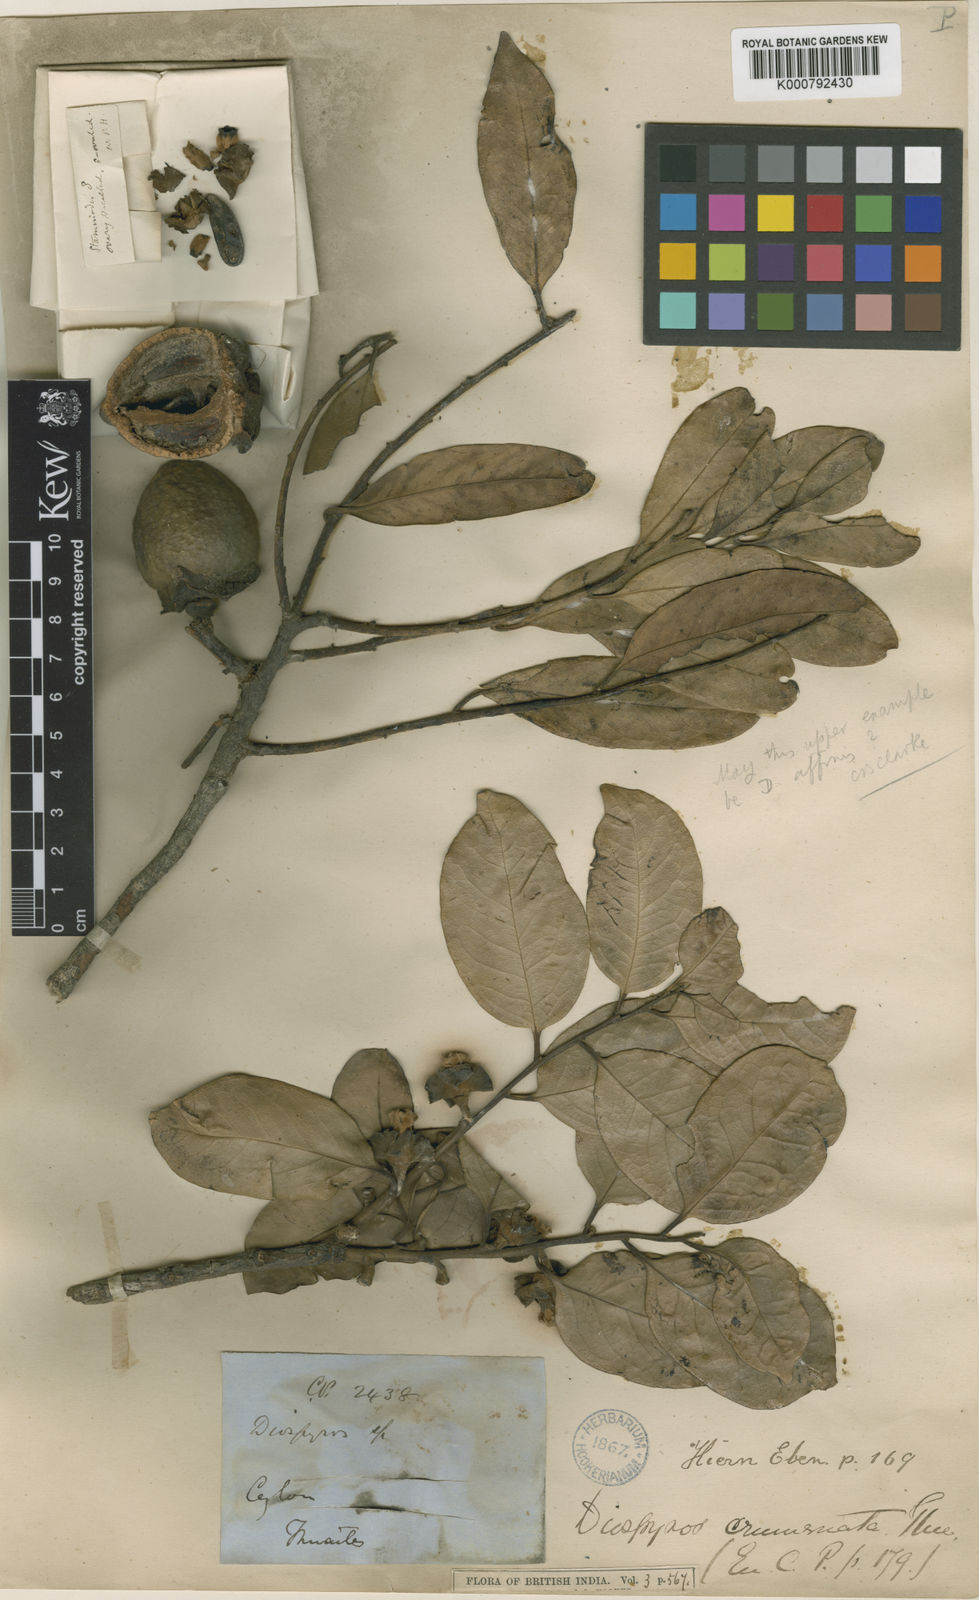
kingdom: Plantae
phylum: Tracheophyta
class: Magnoliopsida
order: Ericales
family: Ebenaceae
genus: Diospyros
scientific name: Diospyros crumenata
